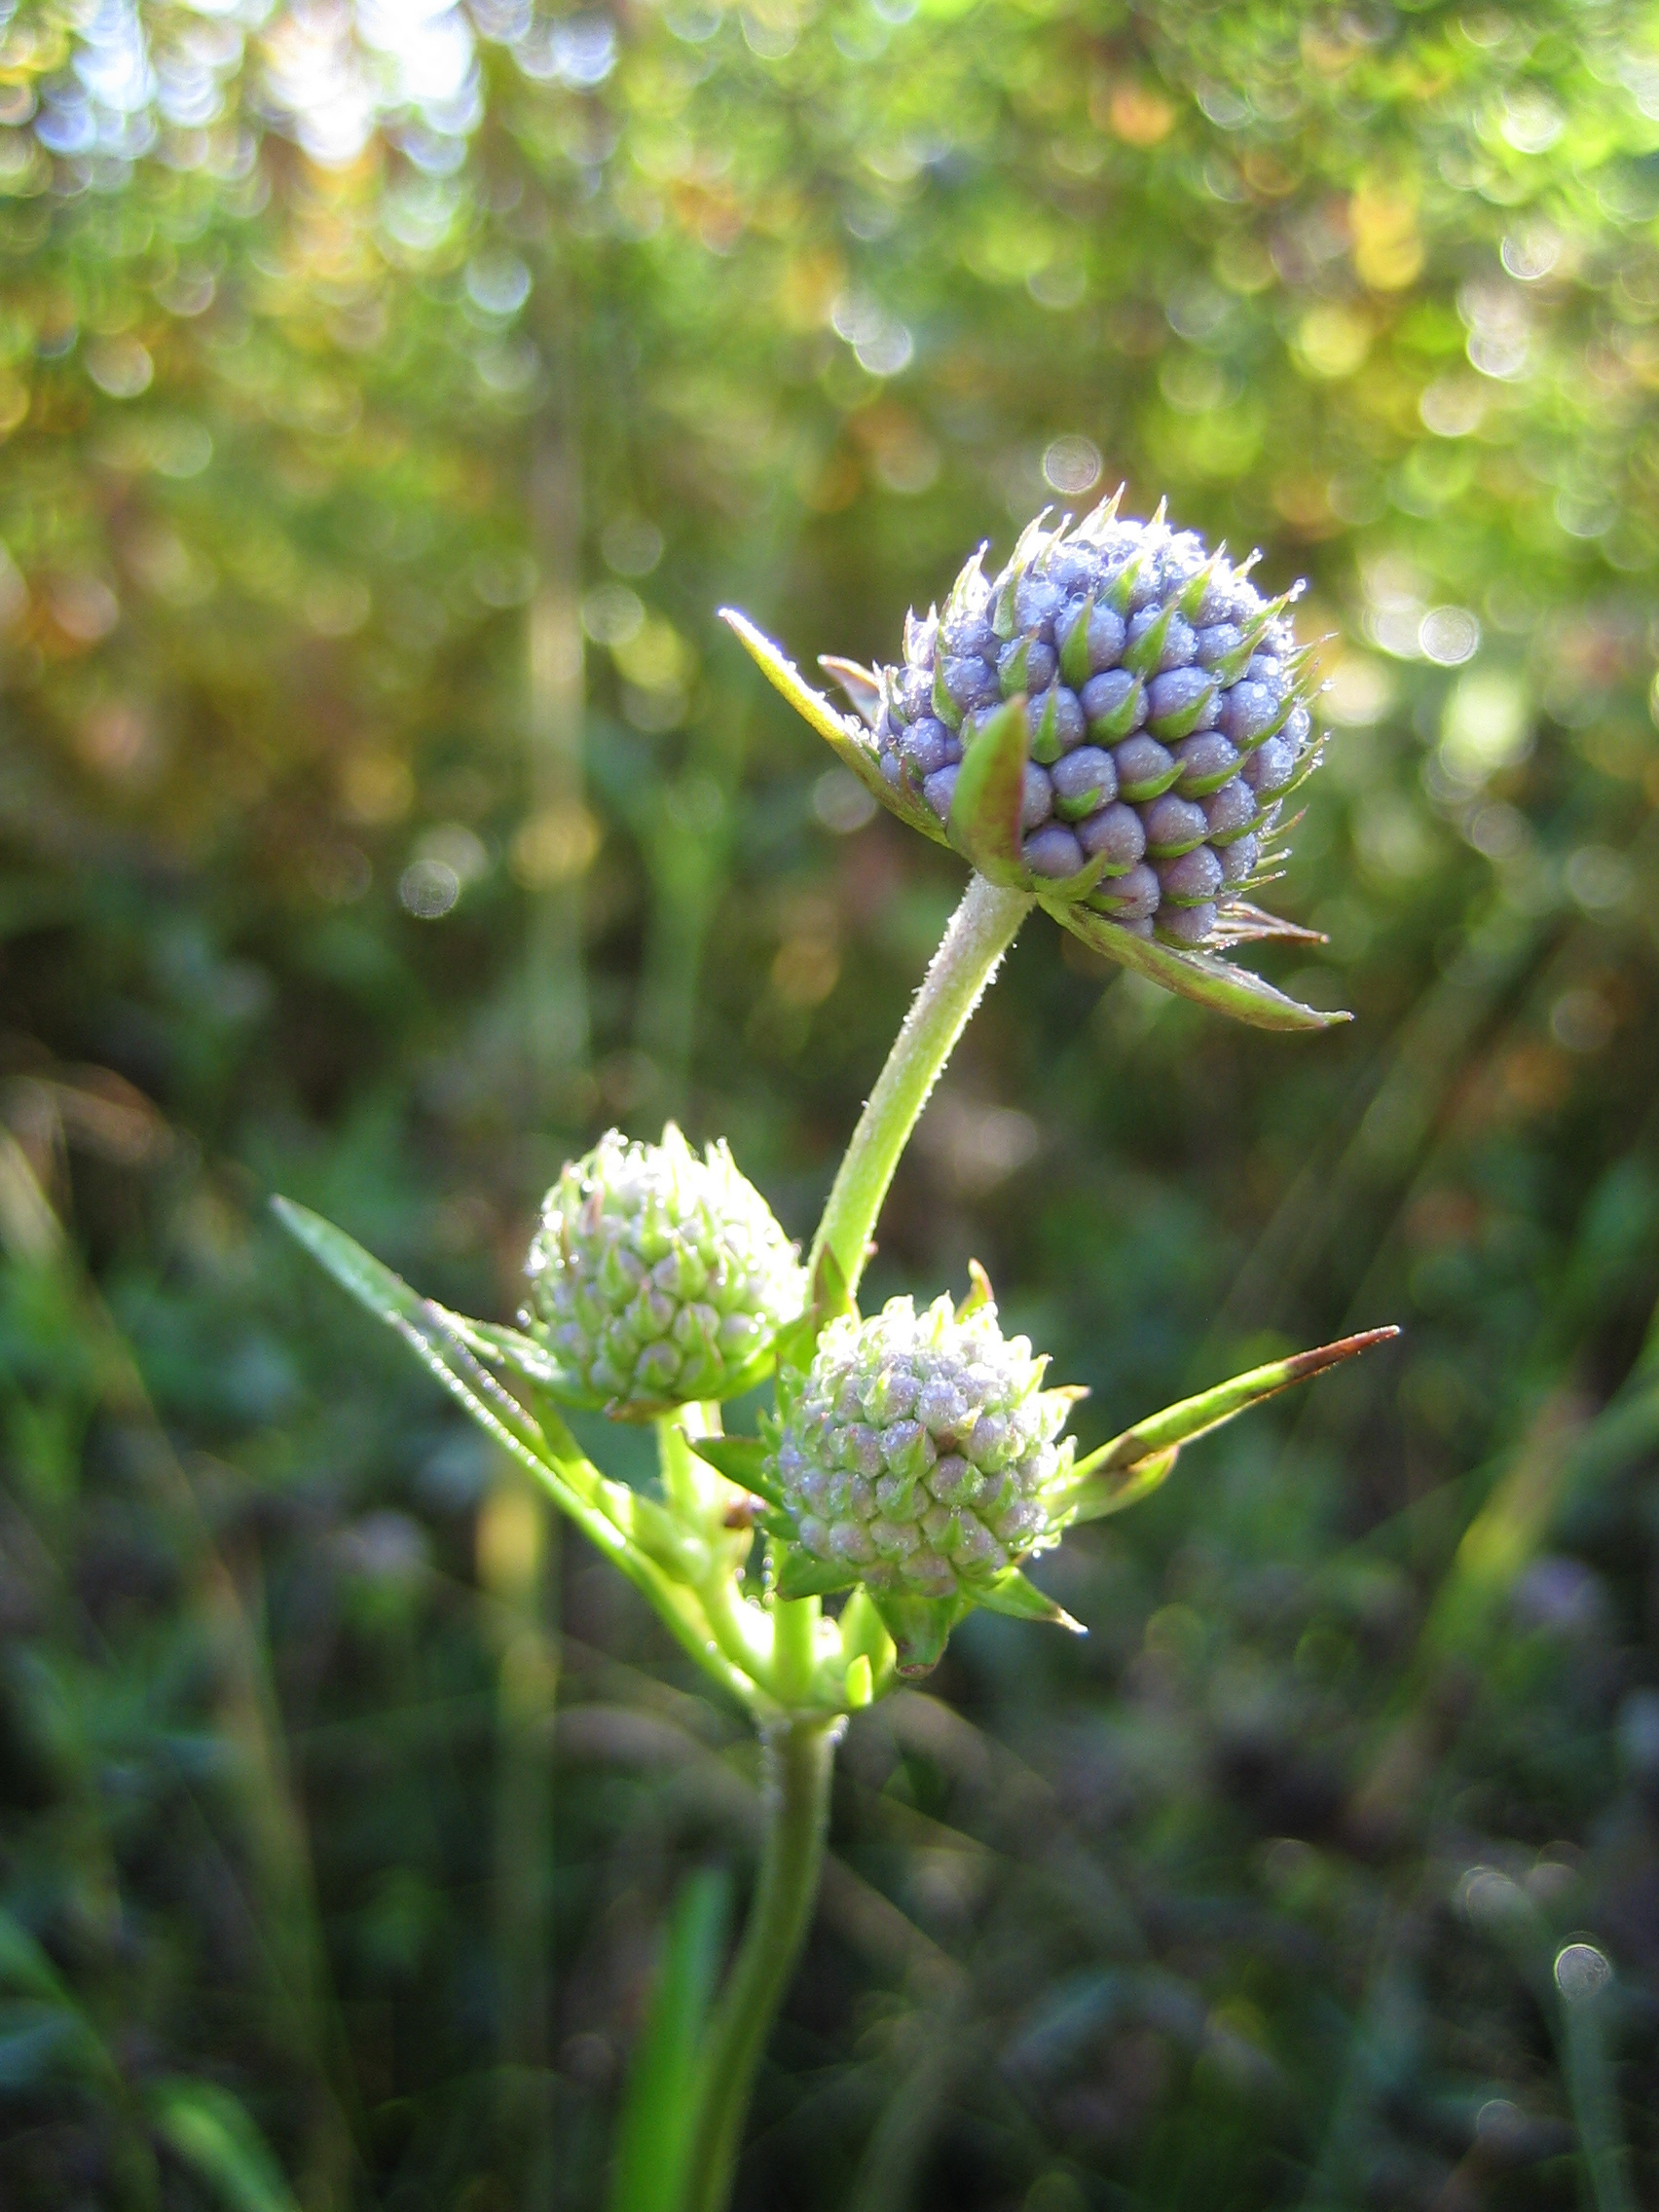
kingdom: Plantae
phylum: Tracheophyta
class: Magnoliopsida
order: Dipsacales
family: Caprifoliaceae
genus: Succisa
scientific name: Succisa pratensis
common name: Devil's-bit
